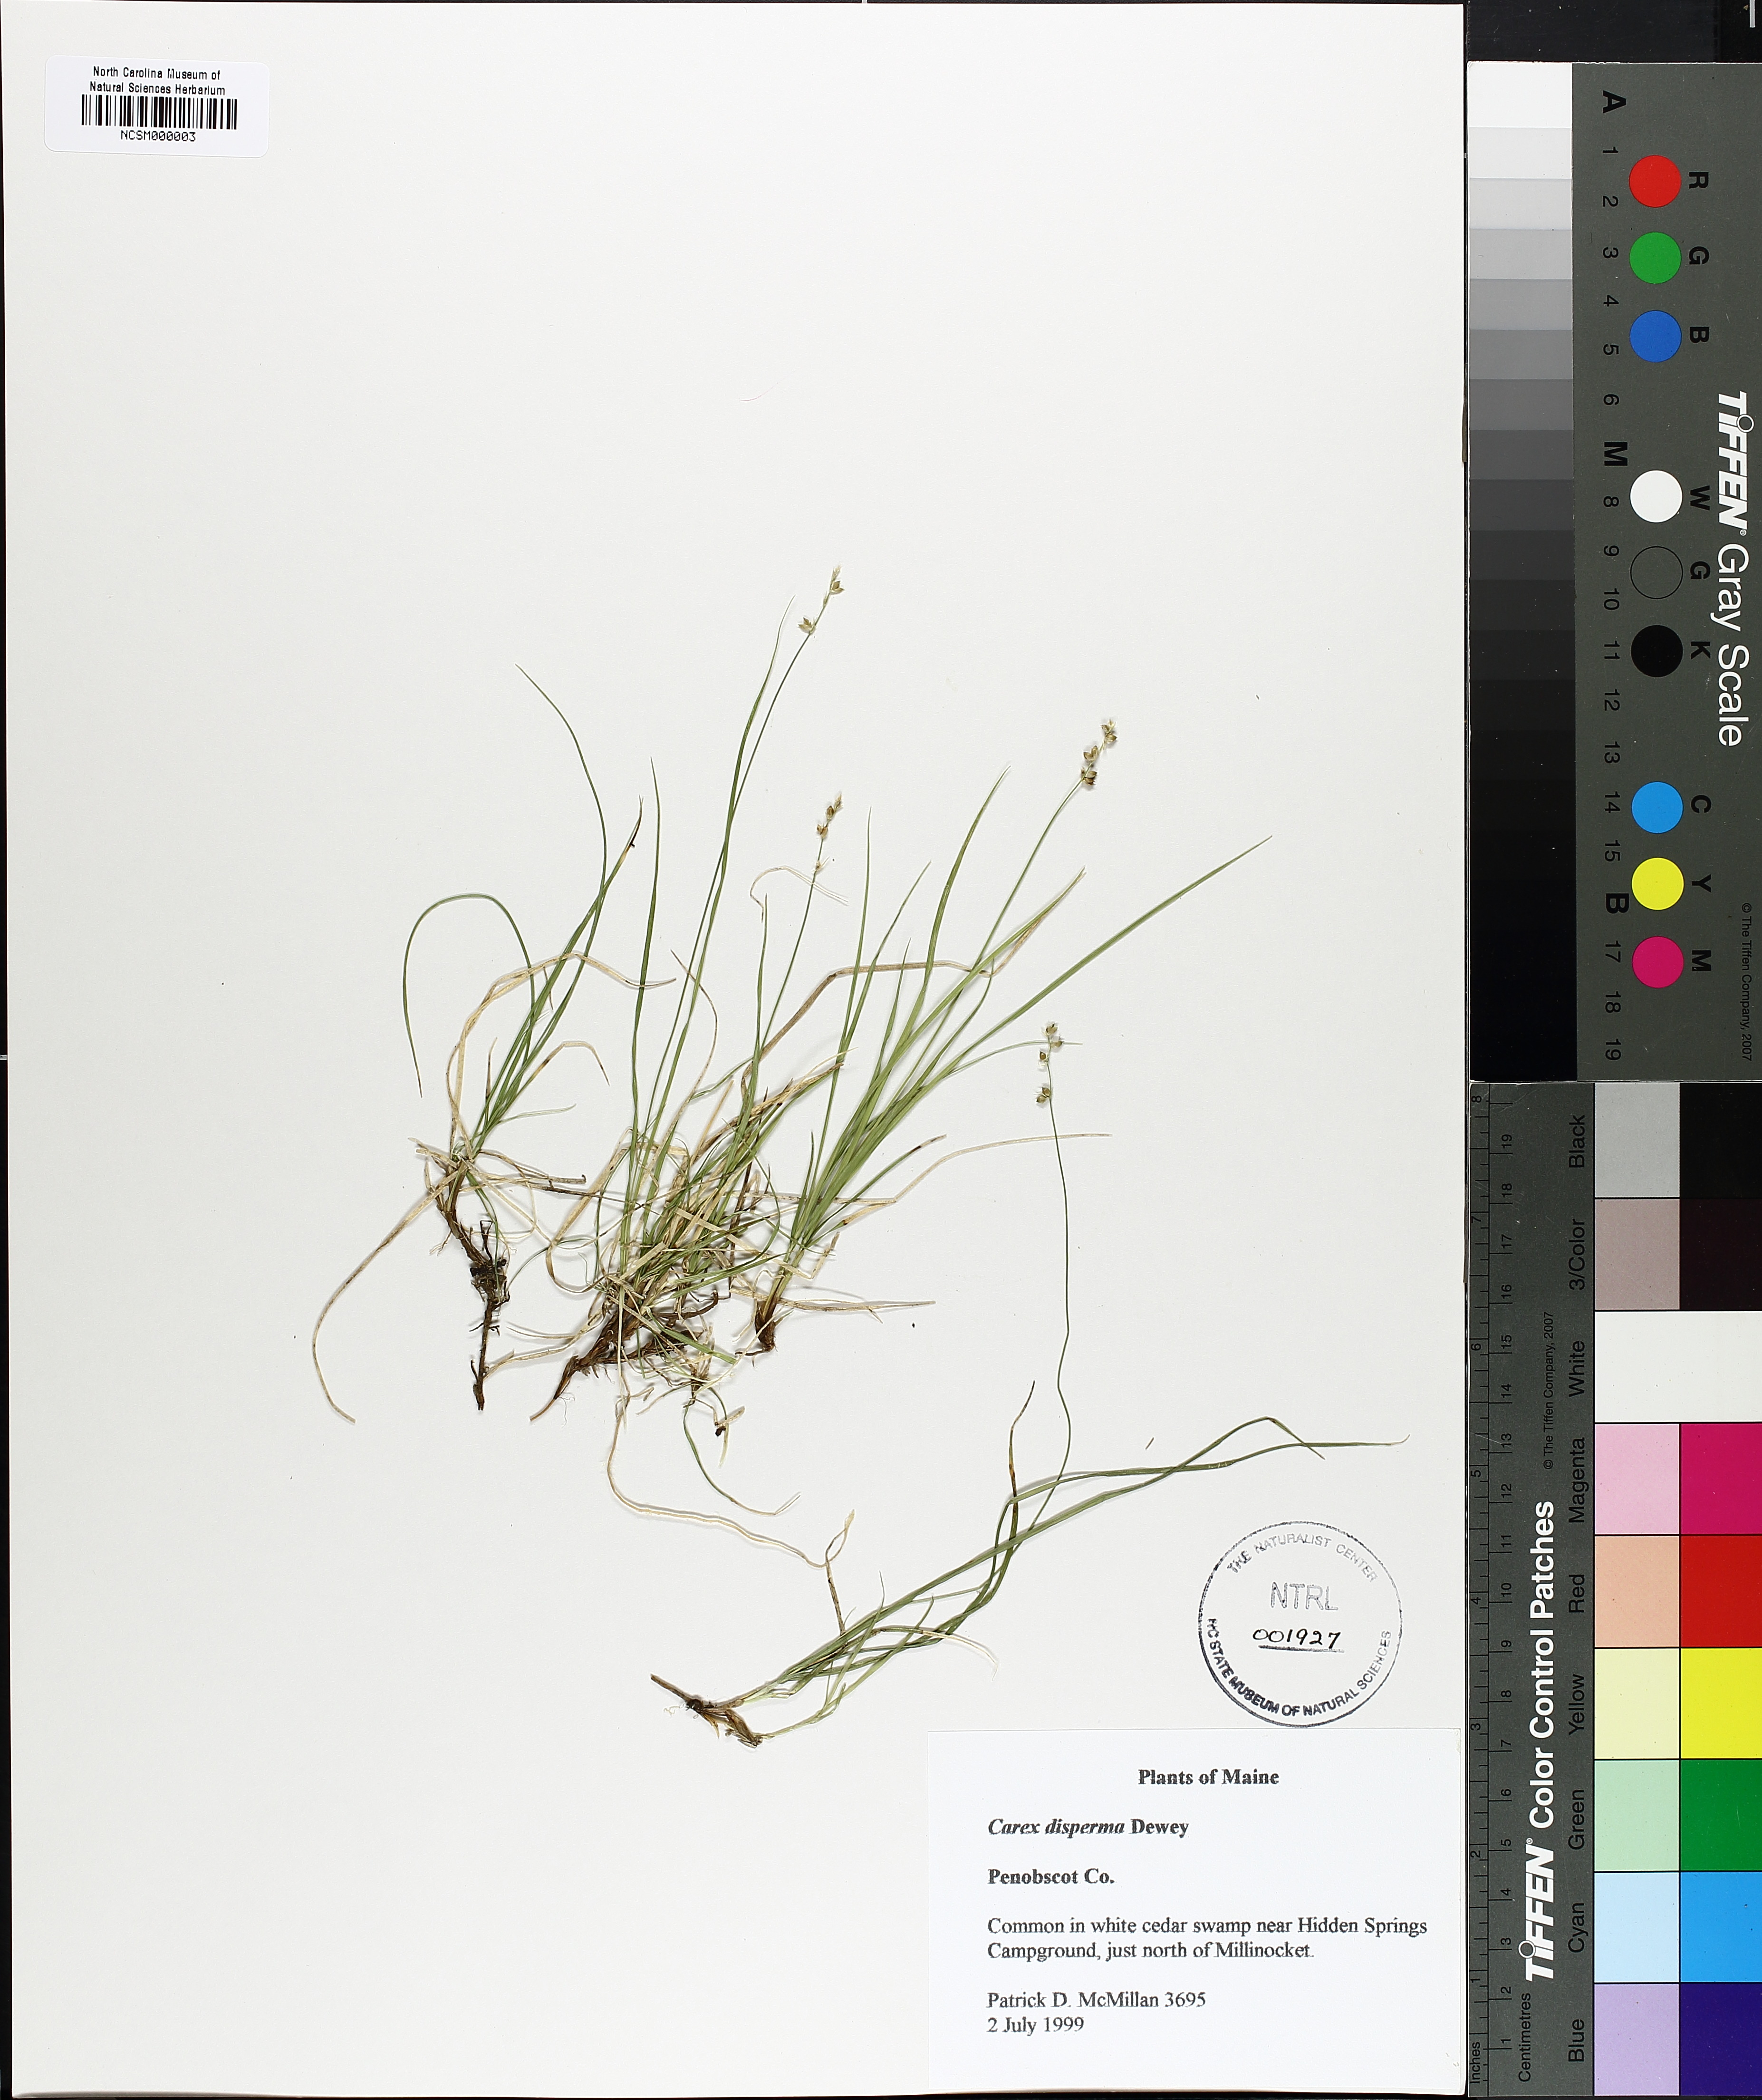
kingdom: Plantae
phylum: Tracheophyta
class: Liliopsida
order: Poales
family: Cyperaceae
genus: Carex
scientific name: Carex disperma
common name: Short-leaved sedge
